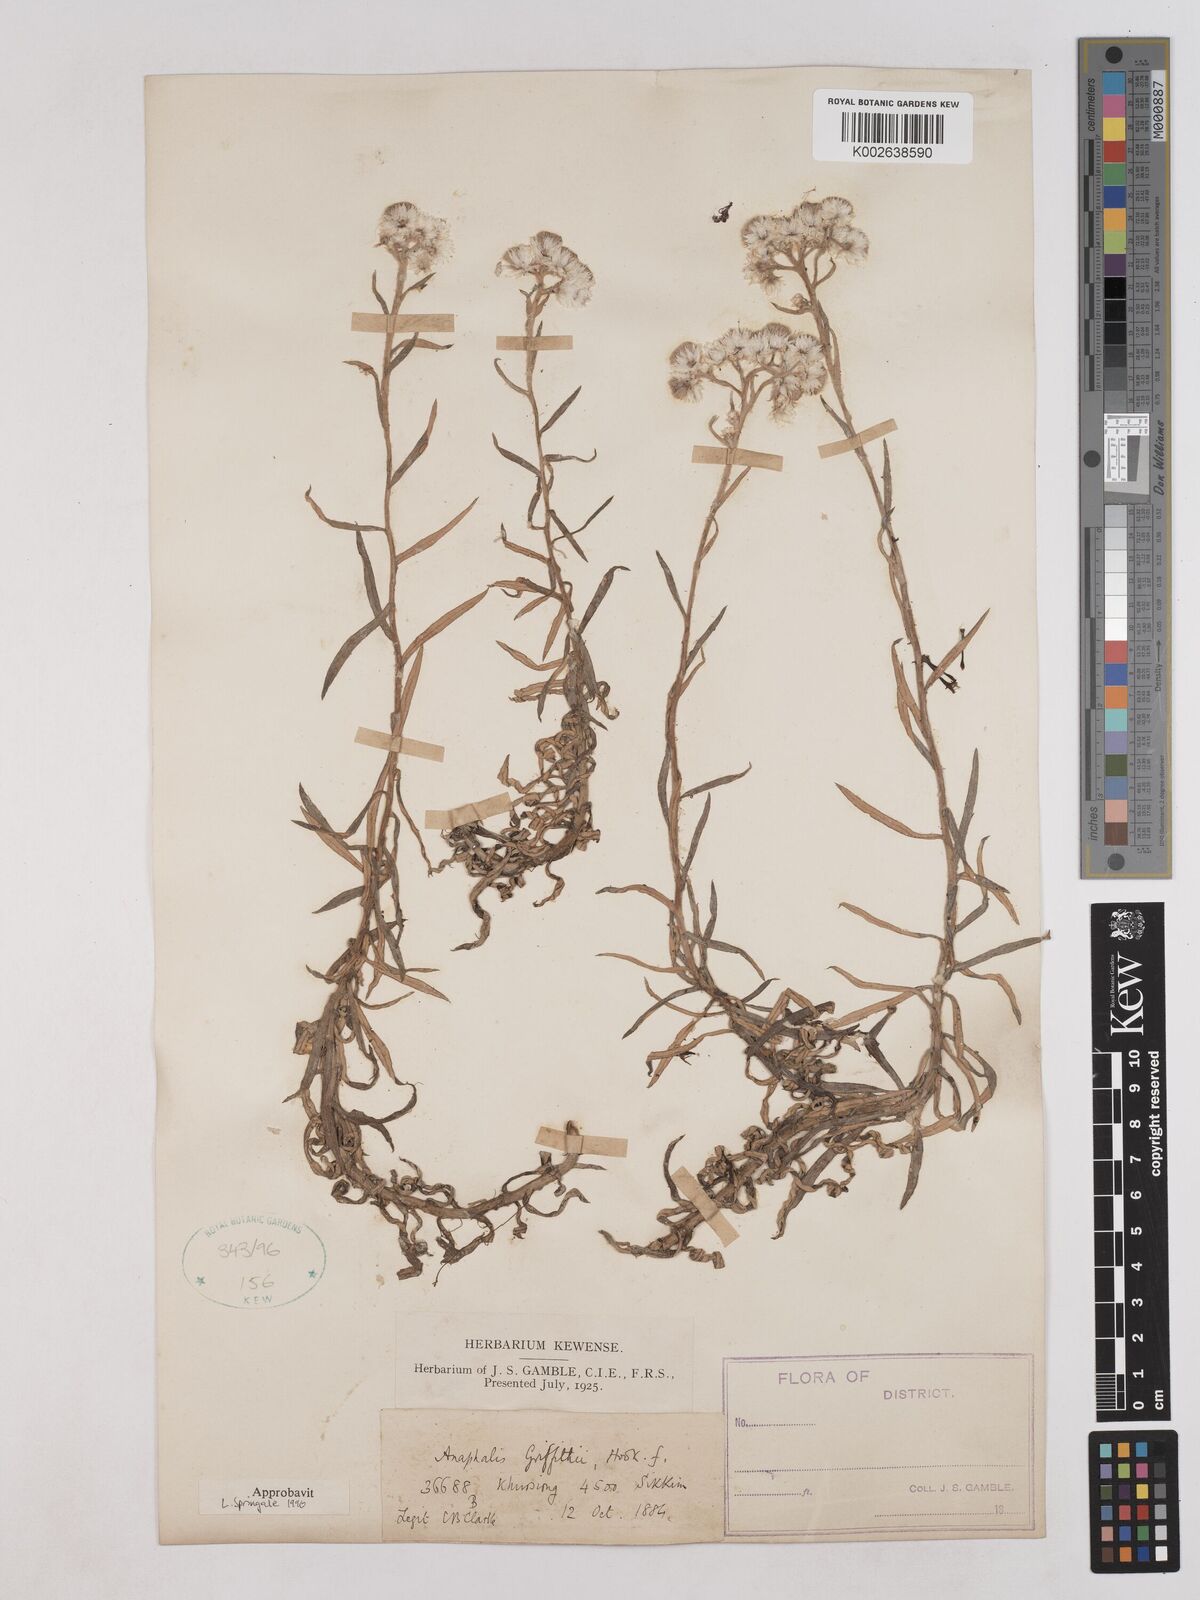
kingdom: Plantae
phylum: Tracheophyta
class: Magnoliopsida
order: Asterales
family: Asteraceae
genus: Anaphalis
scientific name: Anaphalis griffithii
